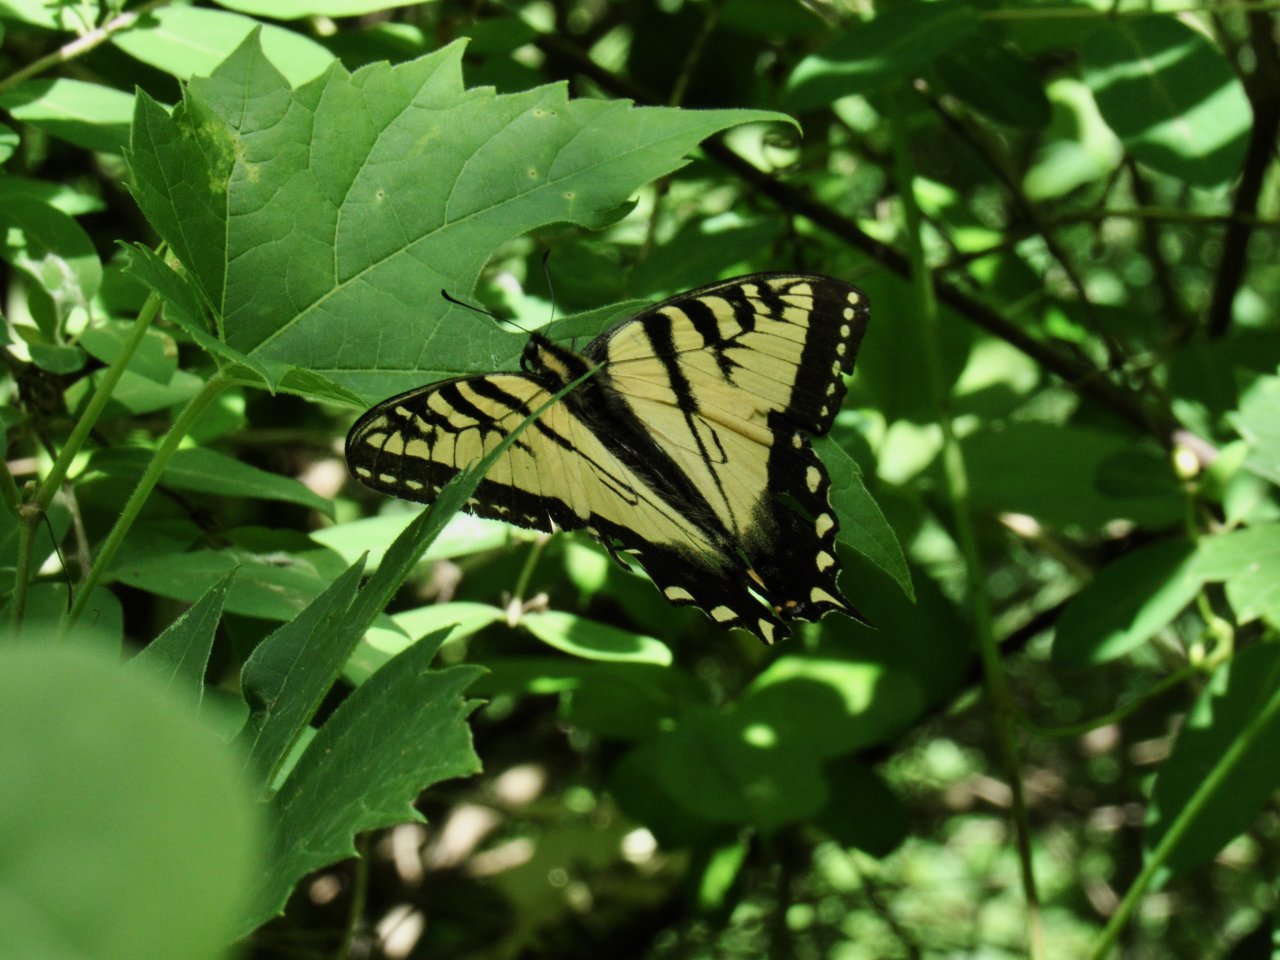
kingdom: Animalia
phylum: Arthropoda
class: Insecta
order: Lepidoptera
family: Papilionidae
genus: Pterourus
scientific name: Pterourus canadensis
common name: Canadian Tiger Swallowtail
